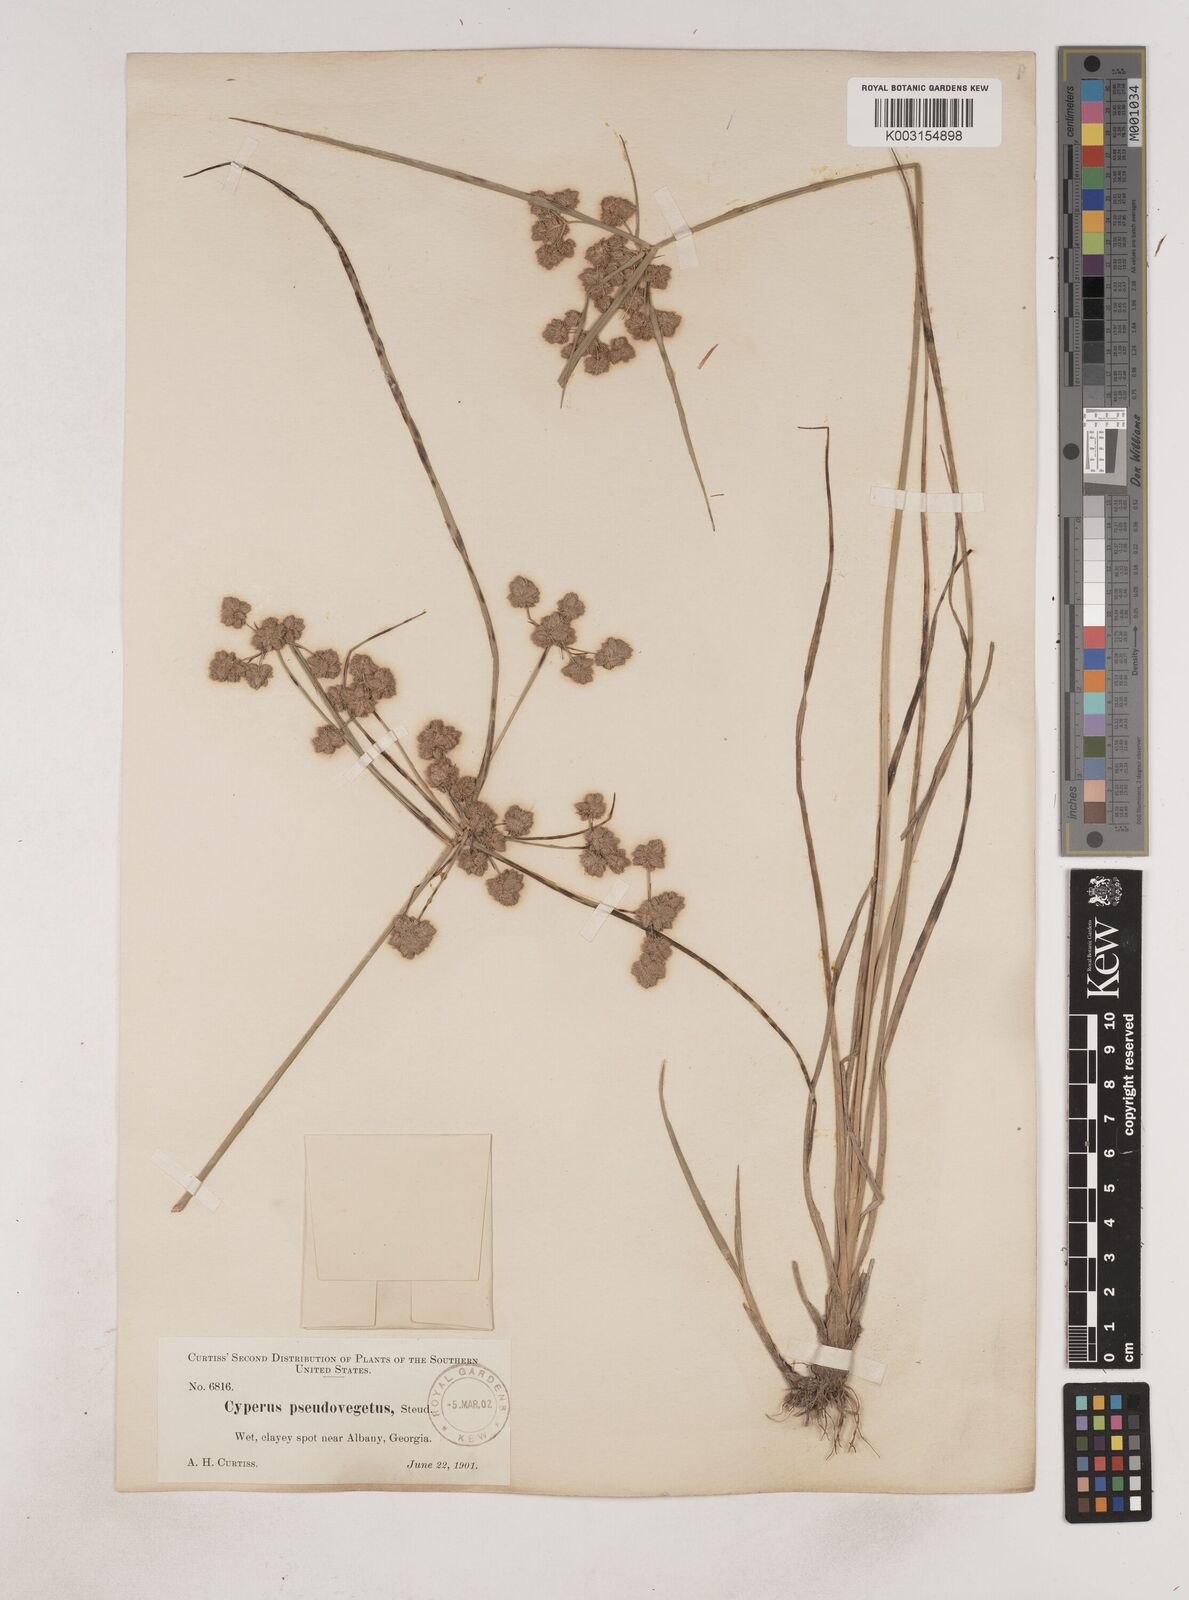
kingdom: Plantae
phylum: Tracheophyta
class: Liliopsida
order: Poales
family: Cyperaceae
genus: Cyperus
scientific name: Cyperus pseudovegetus
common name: Marsh flat sedge
